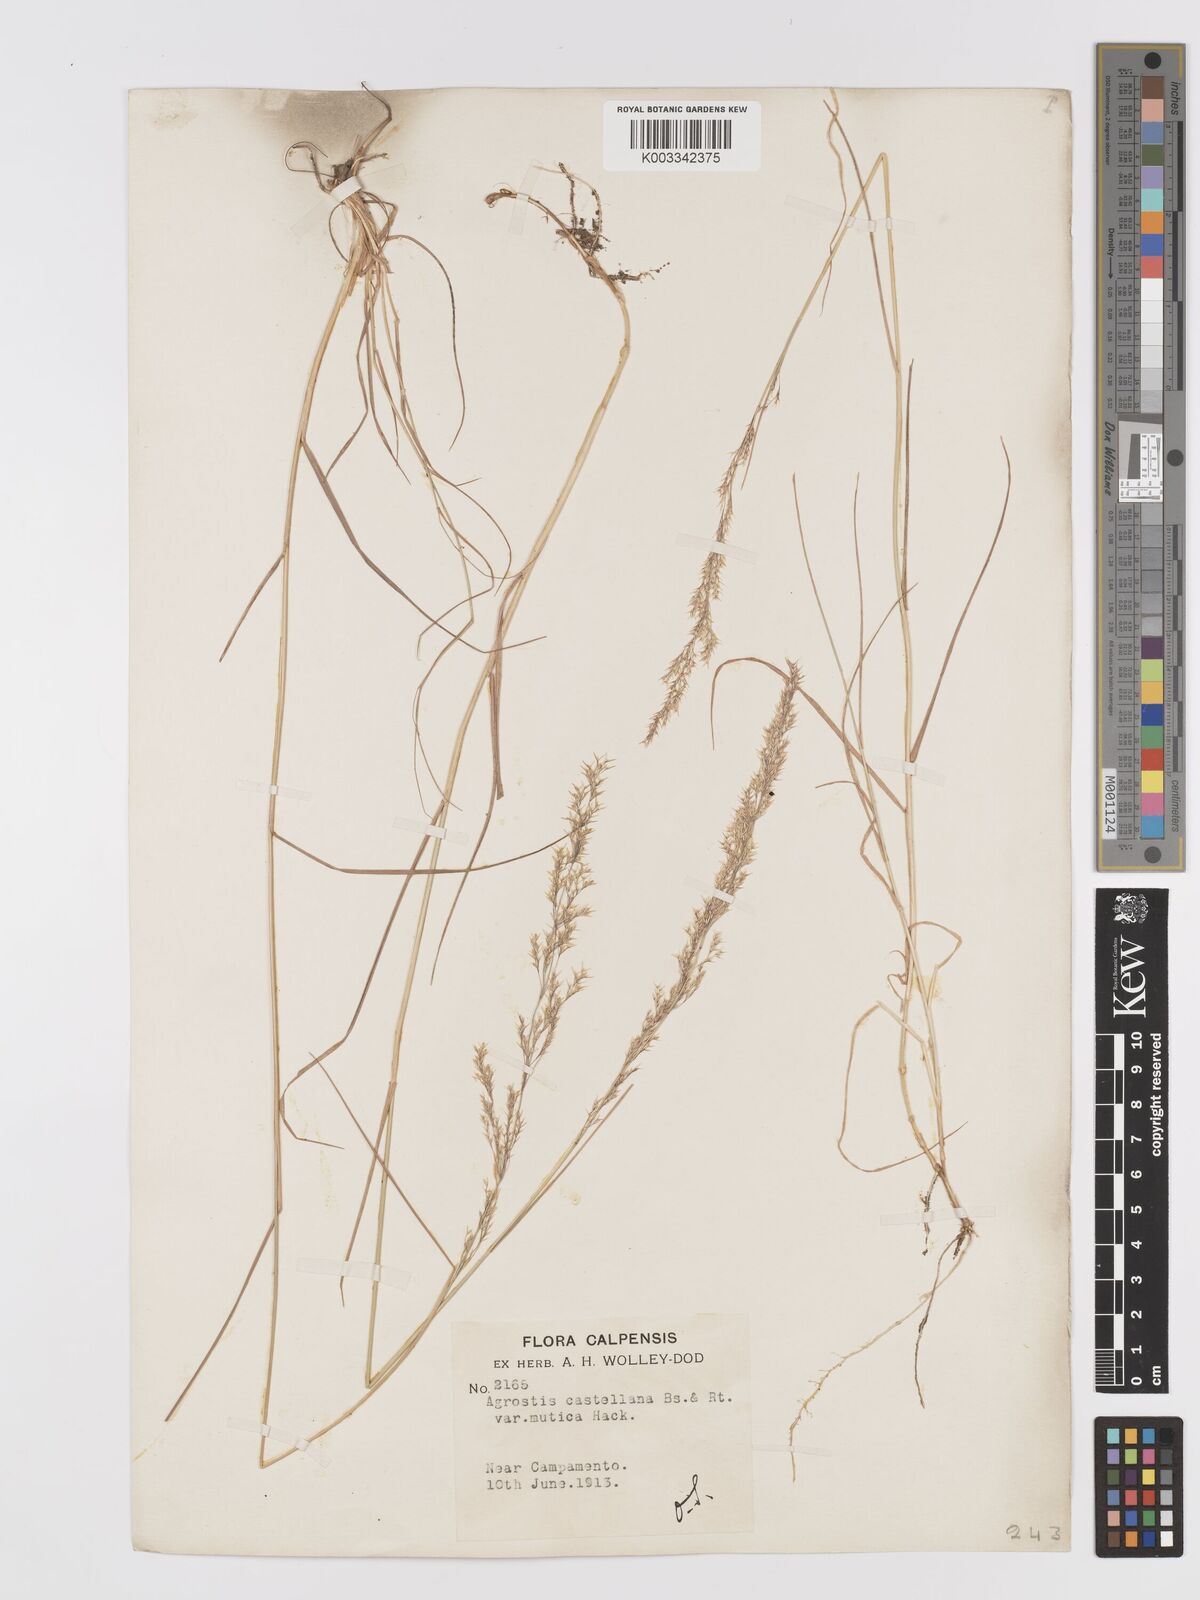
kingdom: Plantae
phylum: Tracheophyta
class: Liliopsida
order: Poales
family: Poaceae
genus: Agrostis
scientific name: Agrostis castellana
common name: Highland bent
